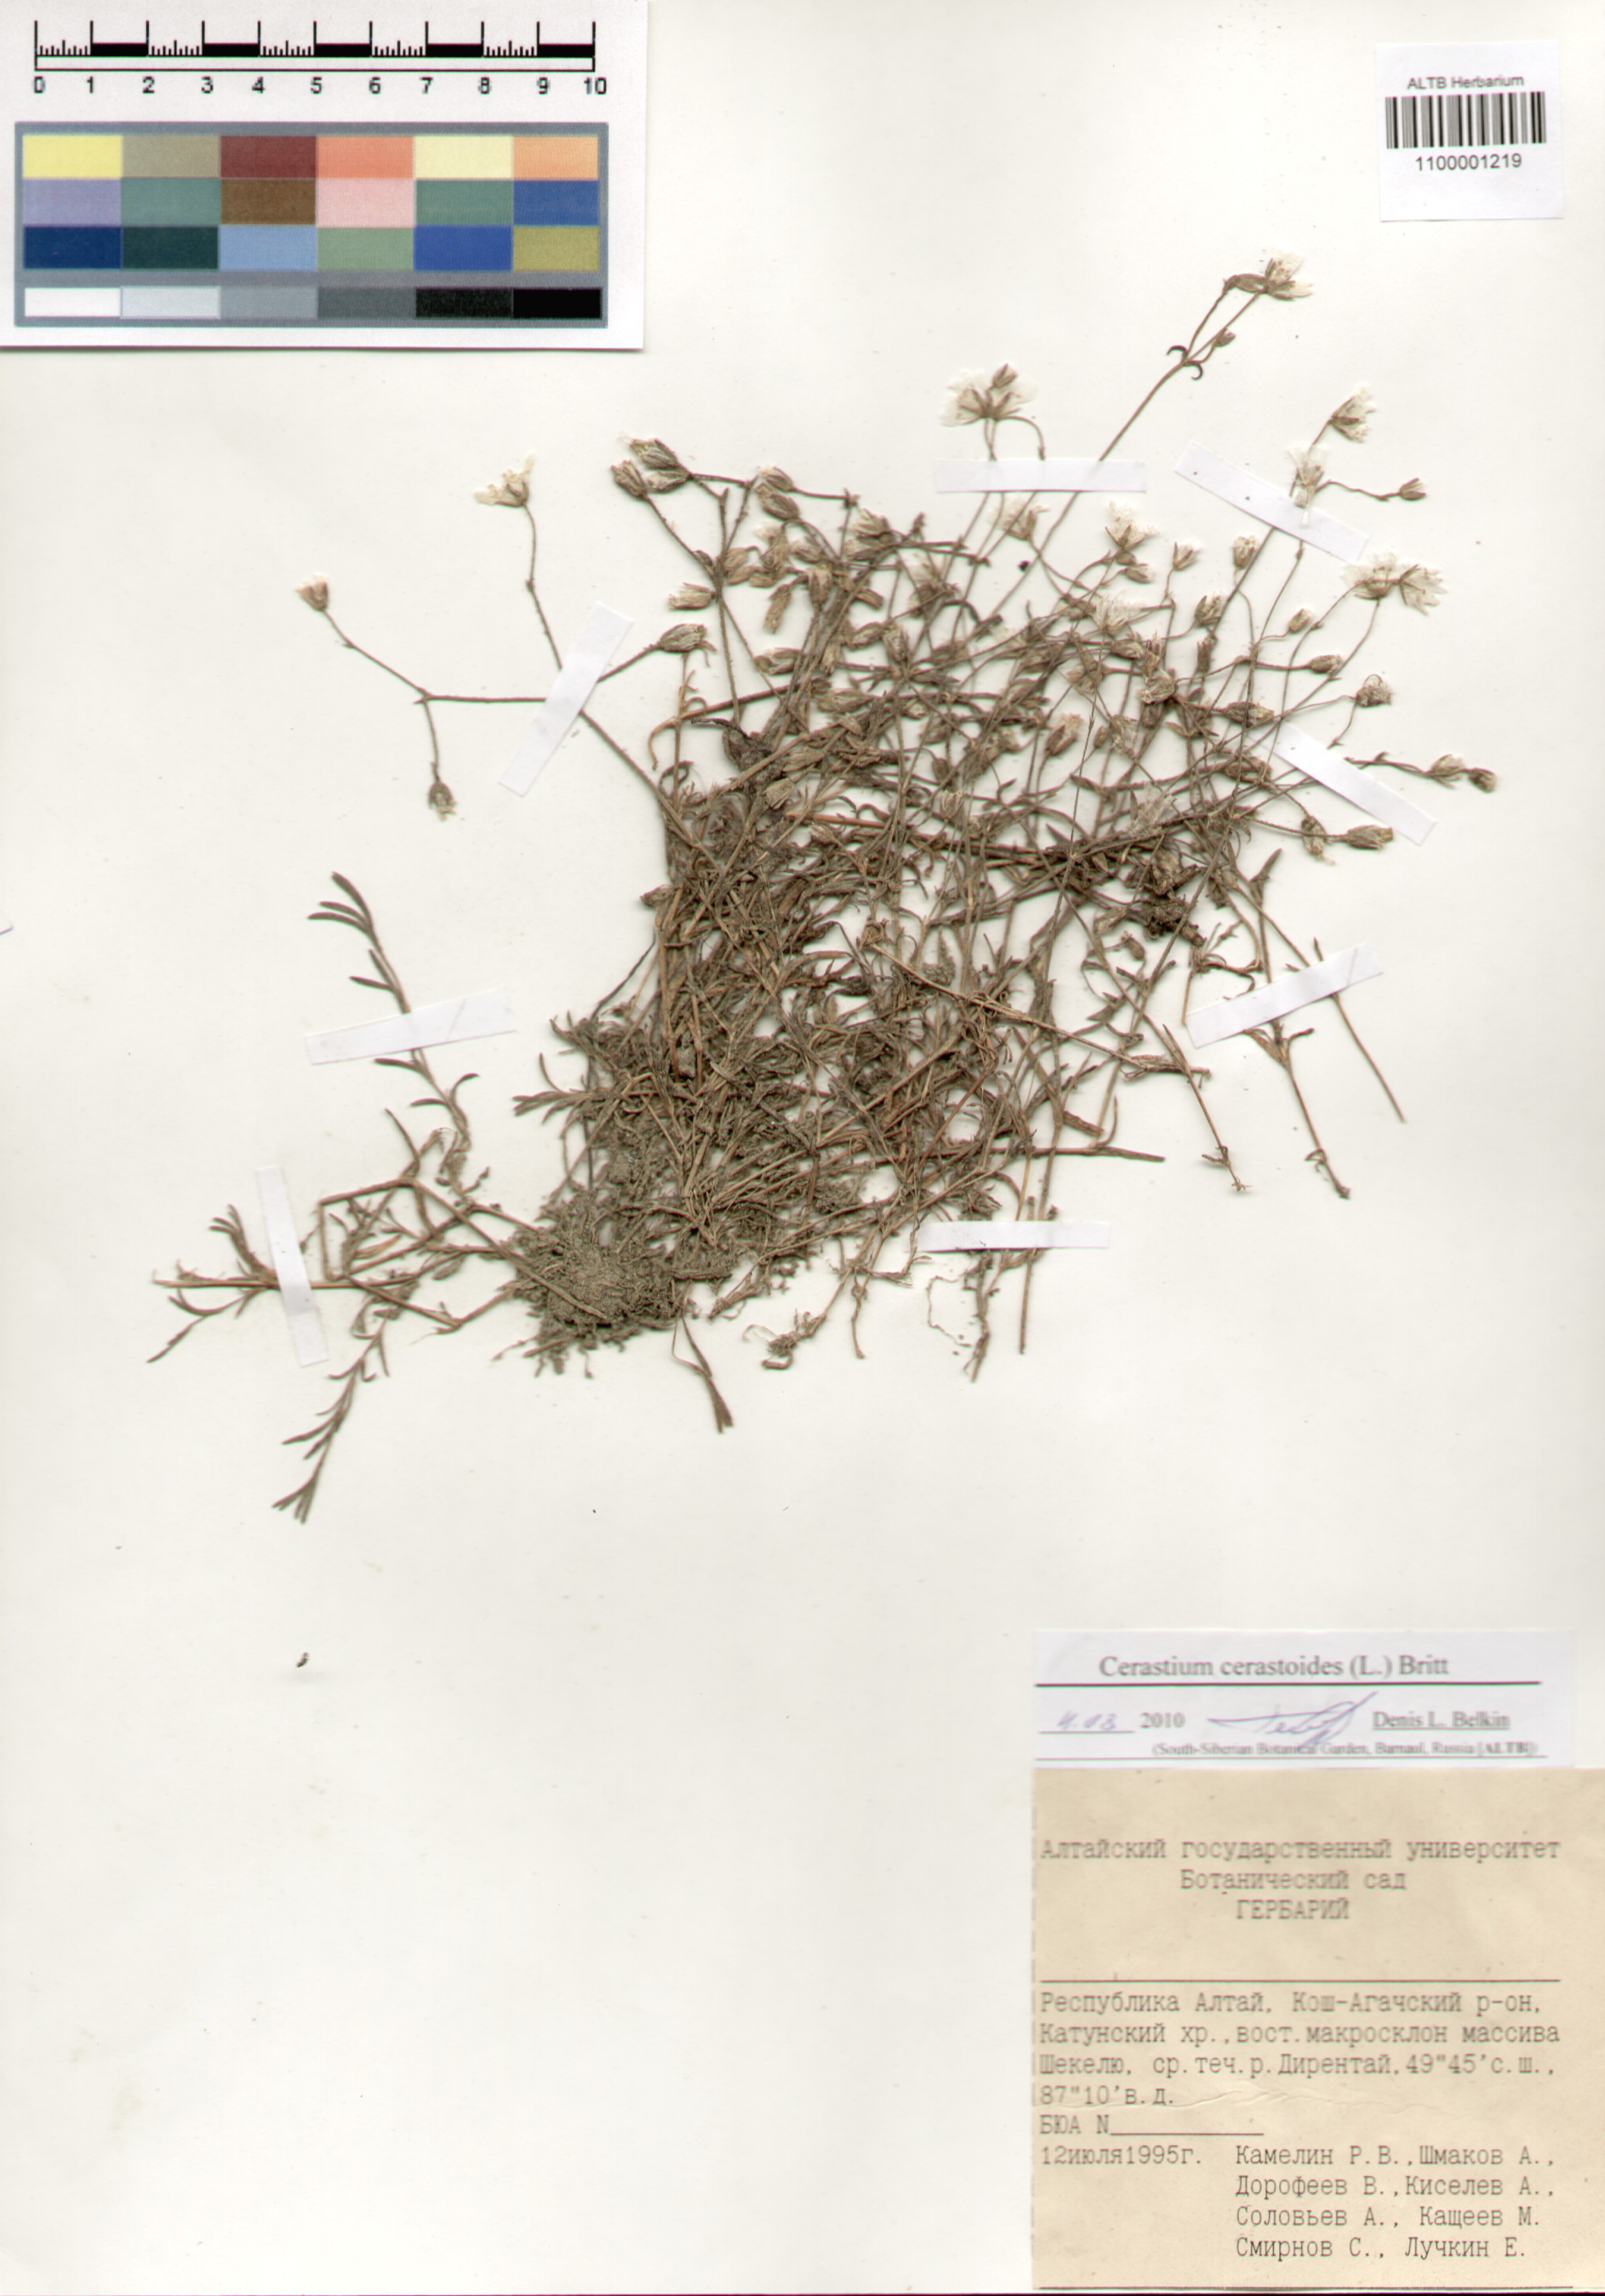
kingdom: Plantae
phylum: Tracheophyta
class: Magnoliopsida
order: Caryophyllales
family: Caryophyllaceae
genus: Dichodon
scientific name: Dichodon cerastoides
